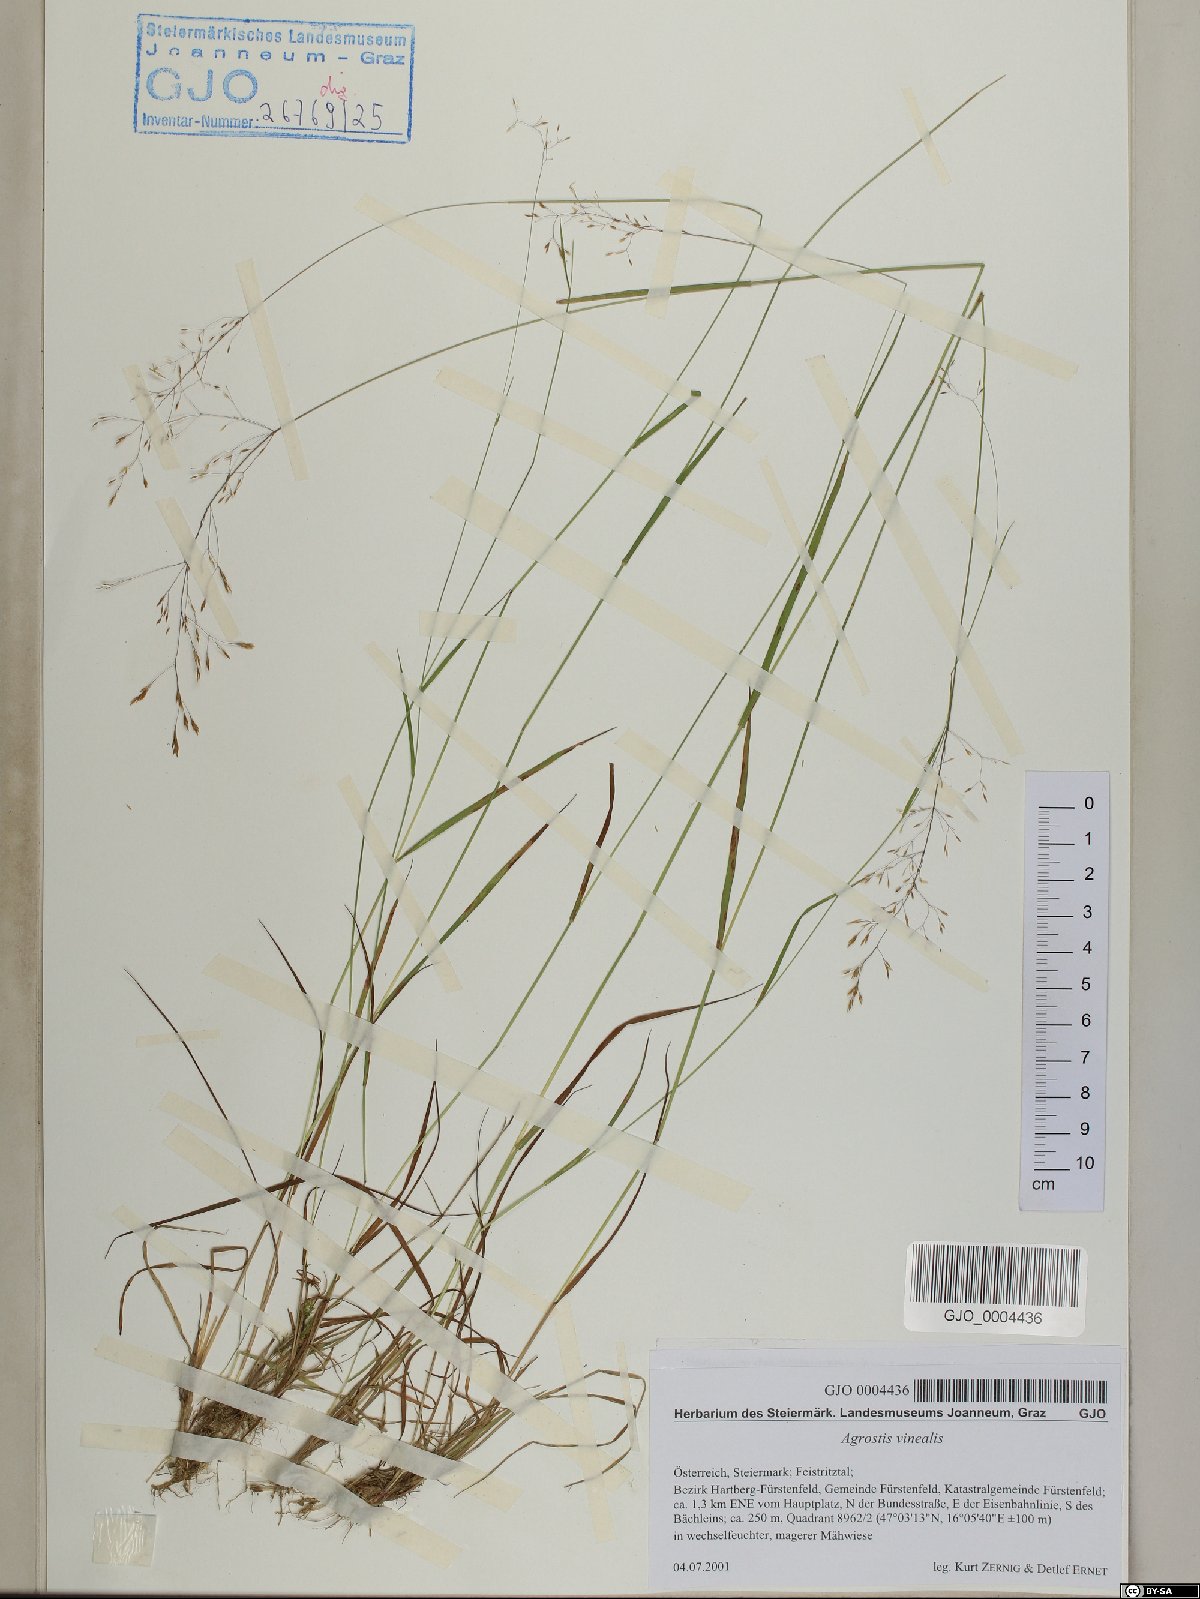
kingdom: Plantae
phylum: Tracheophyta
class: Liliopsida
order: Poales
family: Poaceae
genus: Agrostis
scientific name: Agrostis vinealis
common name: Brown bent
